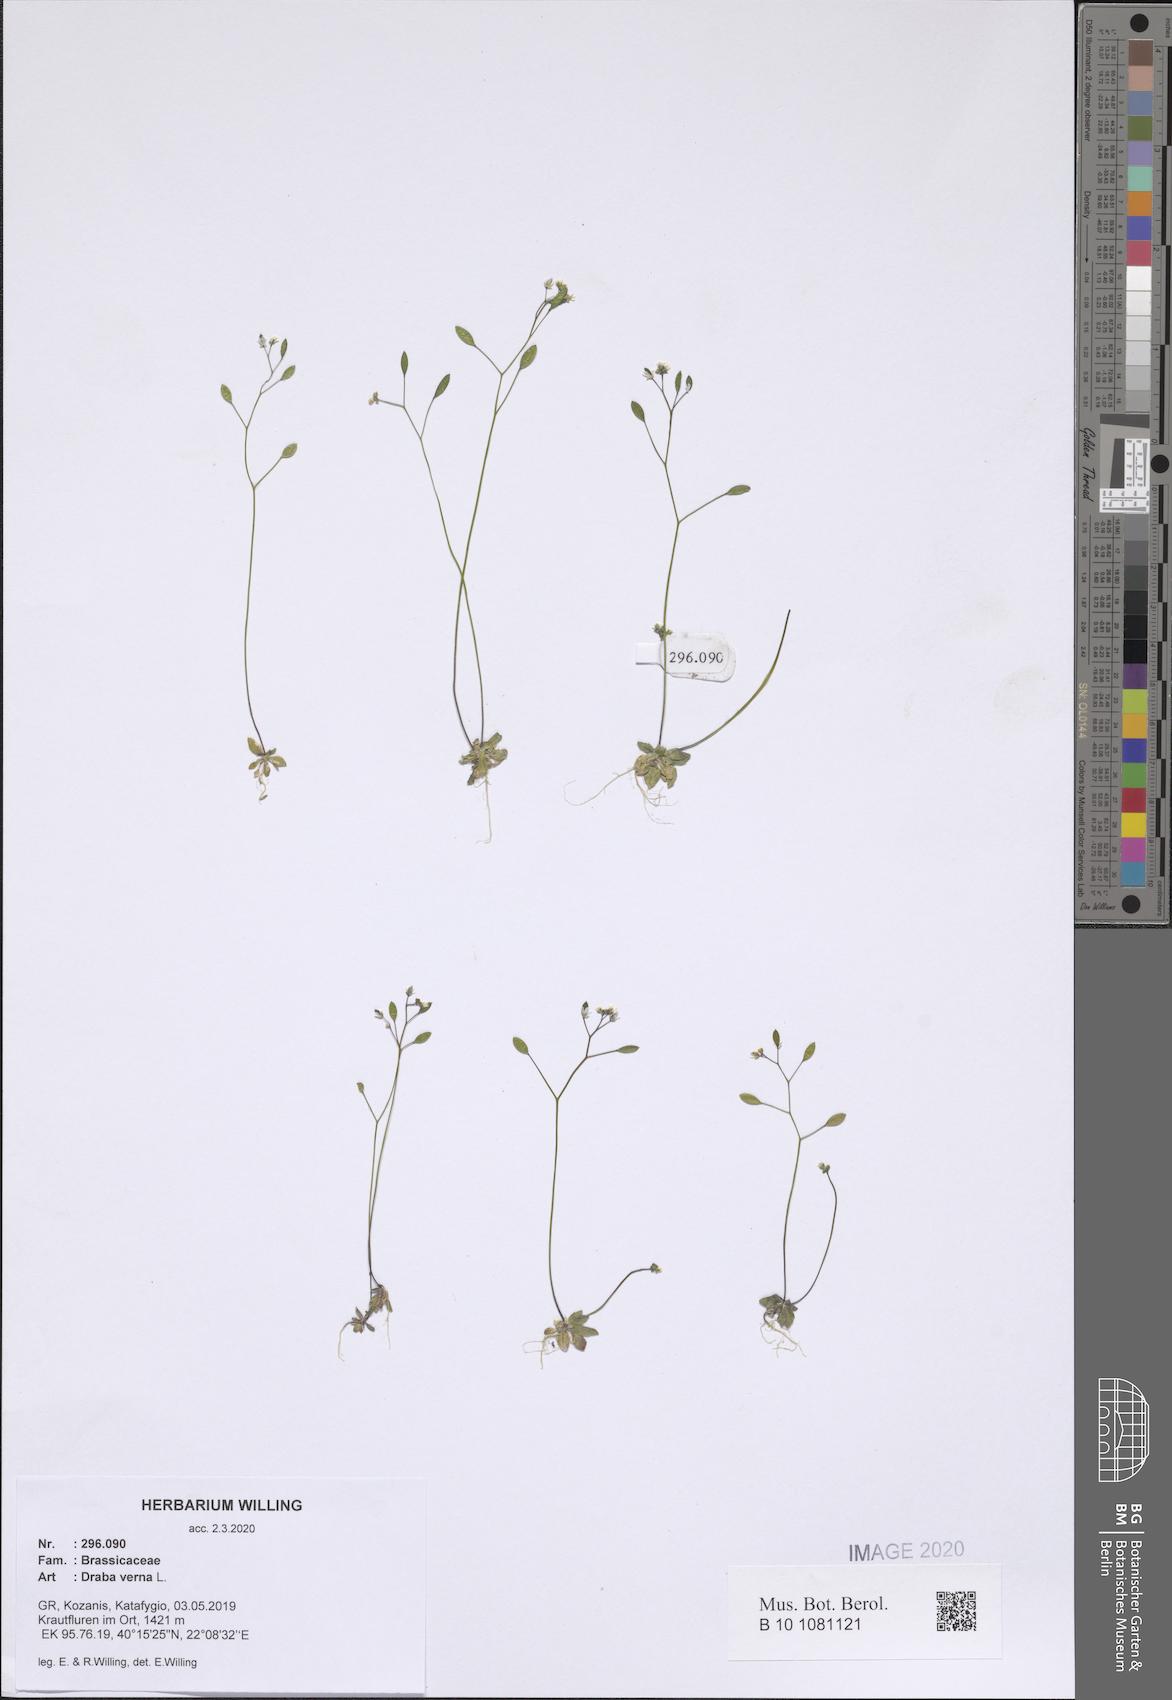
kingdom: Plantae
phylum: Tracheophyta
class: Magnoliopsida
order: Brassicales
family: Brassicaceae
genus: Draba
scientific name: Draba verna
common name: Spring draba
